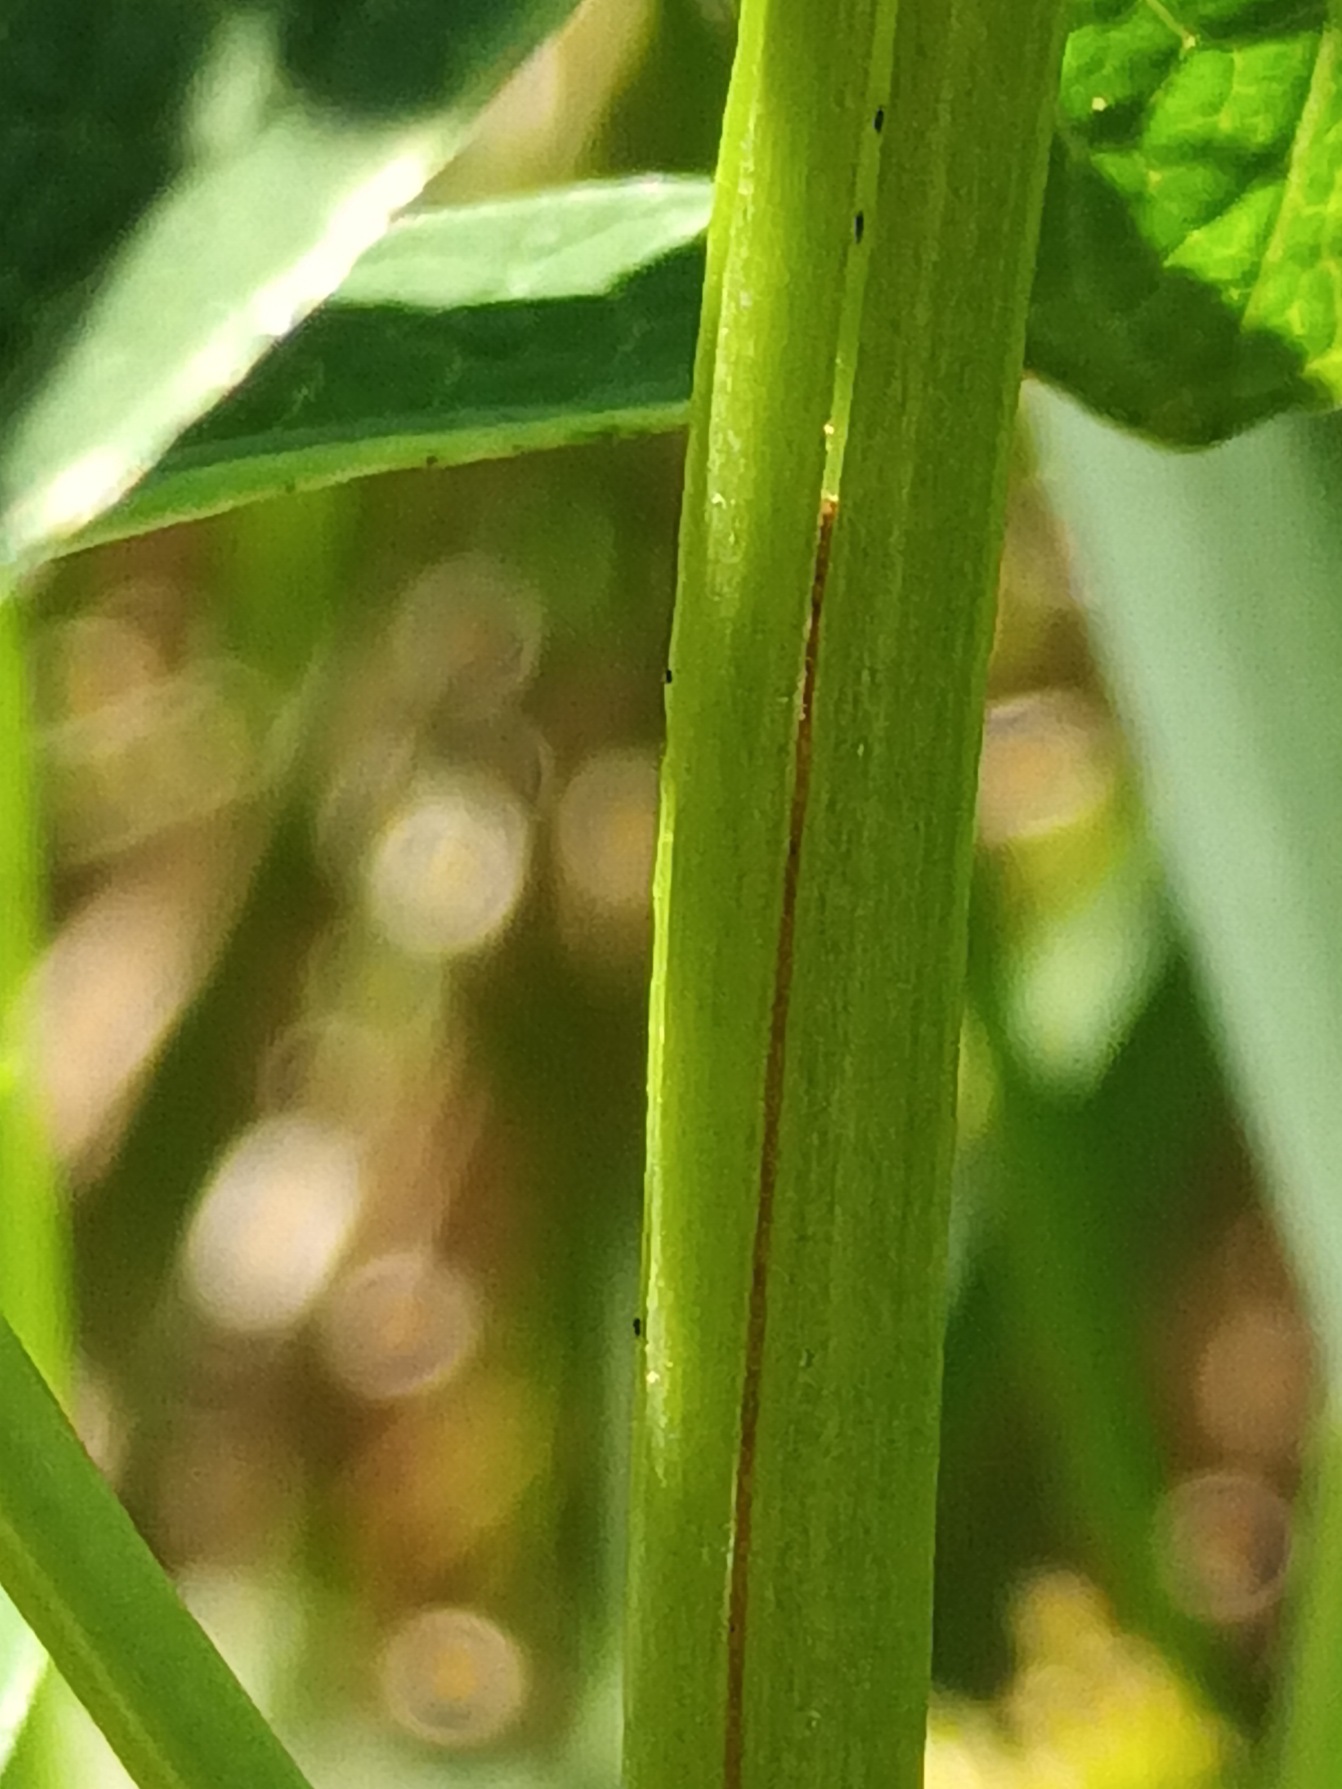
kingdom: Plantae
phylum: Tracheophyta
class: Magnoliopsida
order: Malpighiales
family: Hypericaceae
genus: Hypericum
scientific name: Hypericum maculatum
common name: Kantet perikon
